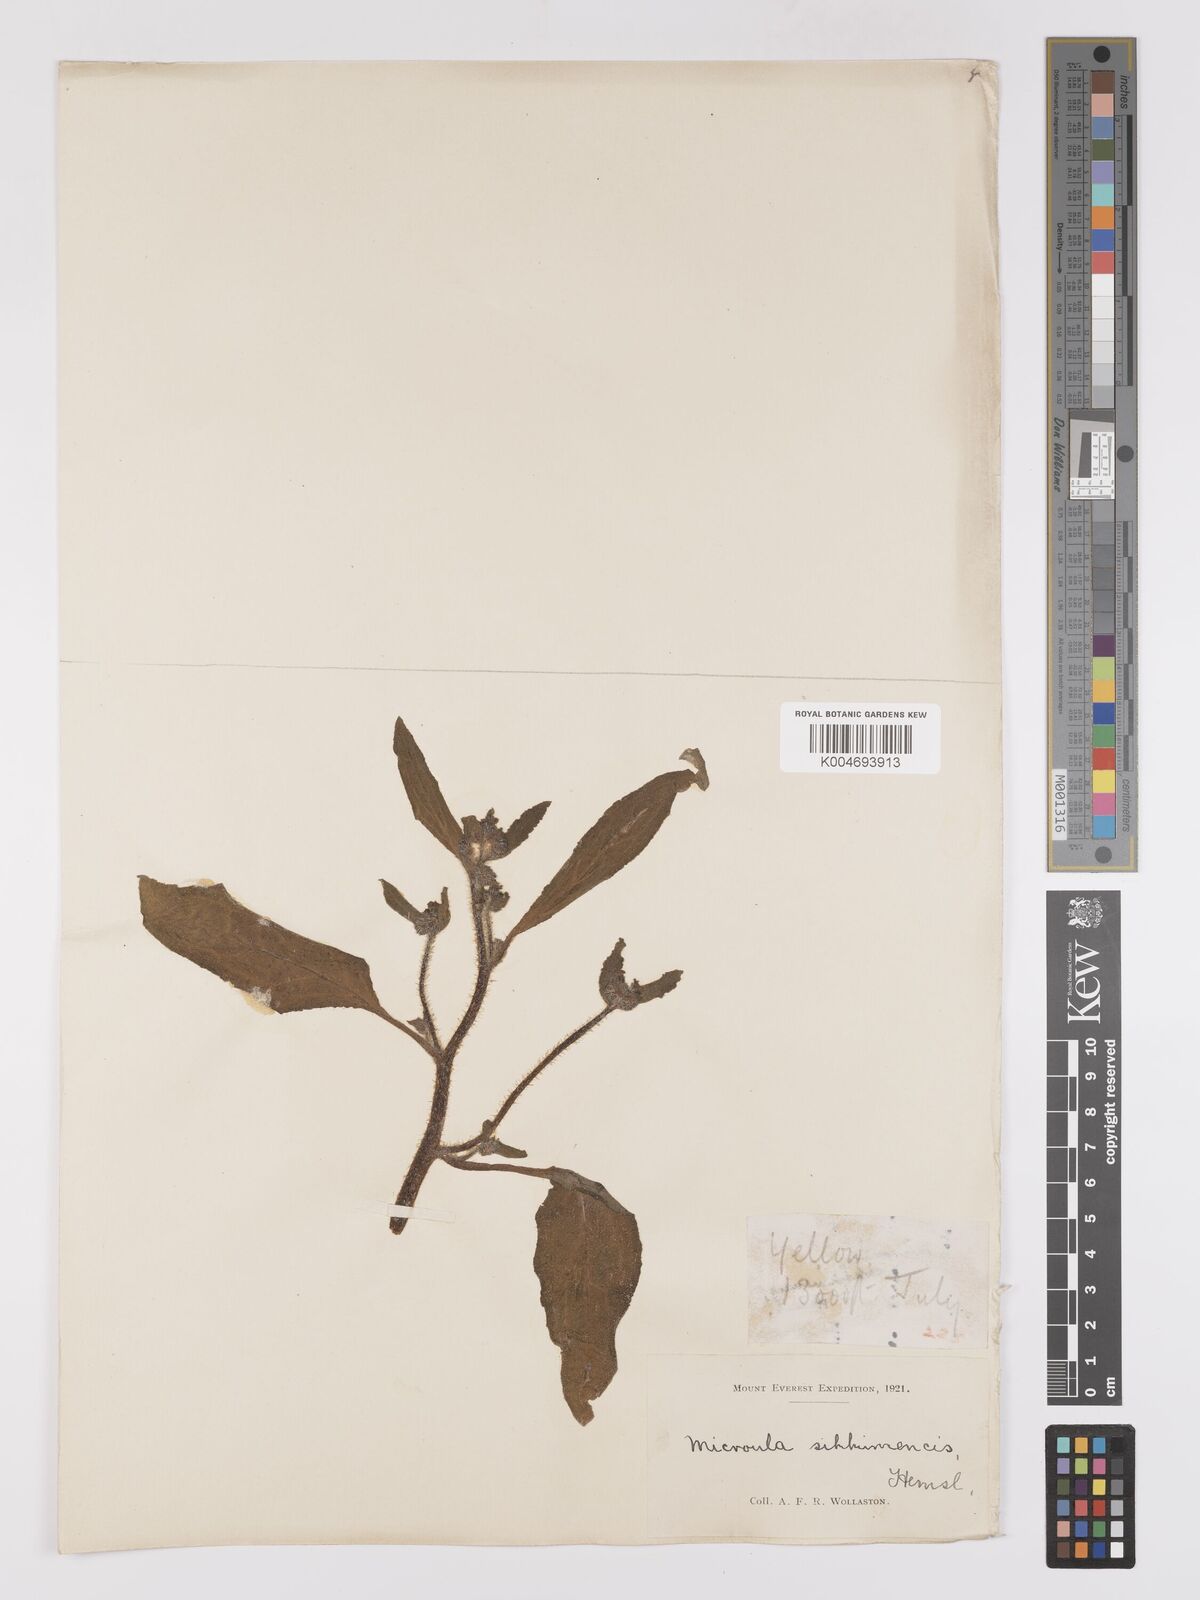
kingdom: Plantae
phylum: Tracheophyta
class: Magnoliopsida
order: Boraginales
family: Boraginaceae
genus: Microula
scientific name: Microula sikkimensis
